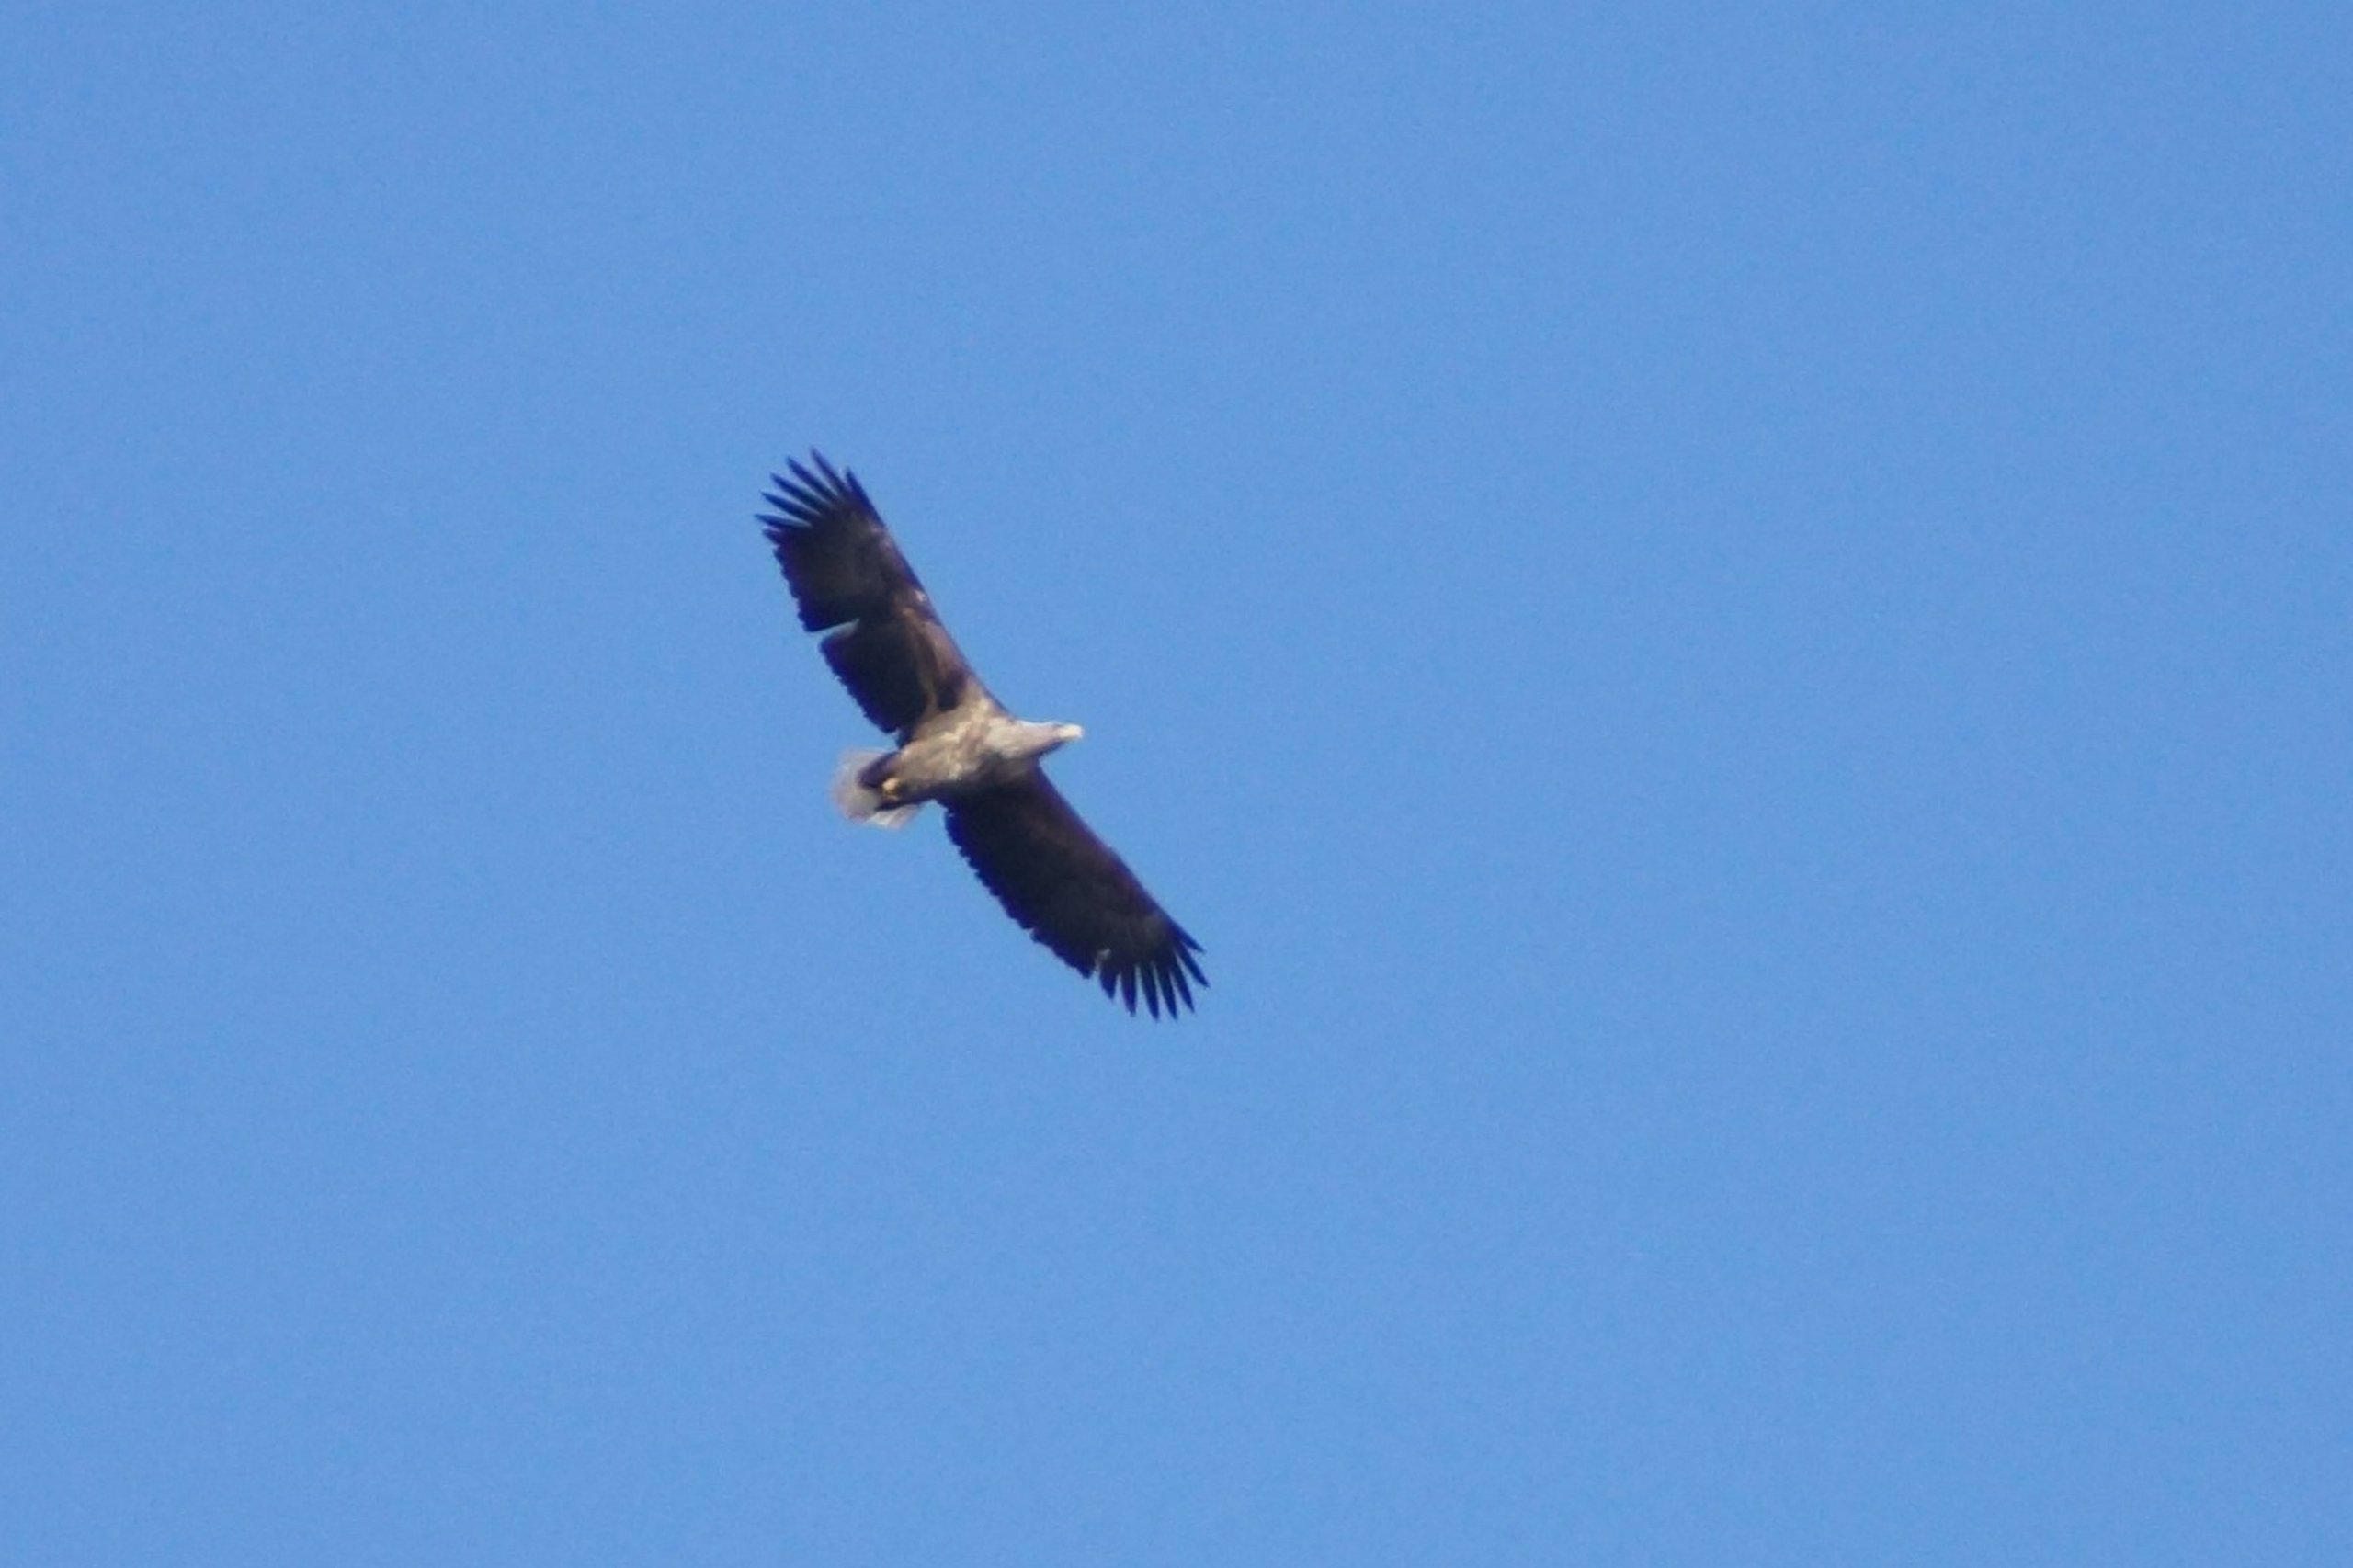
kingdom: Animalia
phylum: Chordata
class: Aves
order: Accipitriformes
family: Accipitridae
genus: Haliaeetus
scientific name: Haliaeetus albicilla
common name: Havørn
